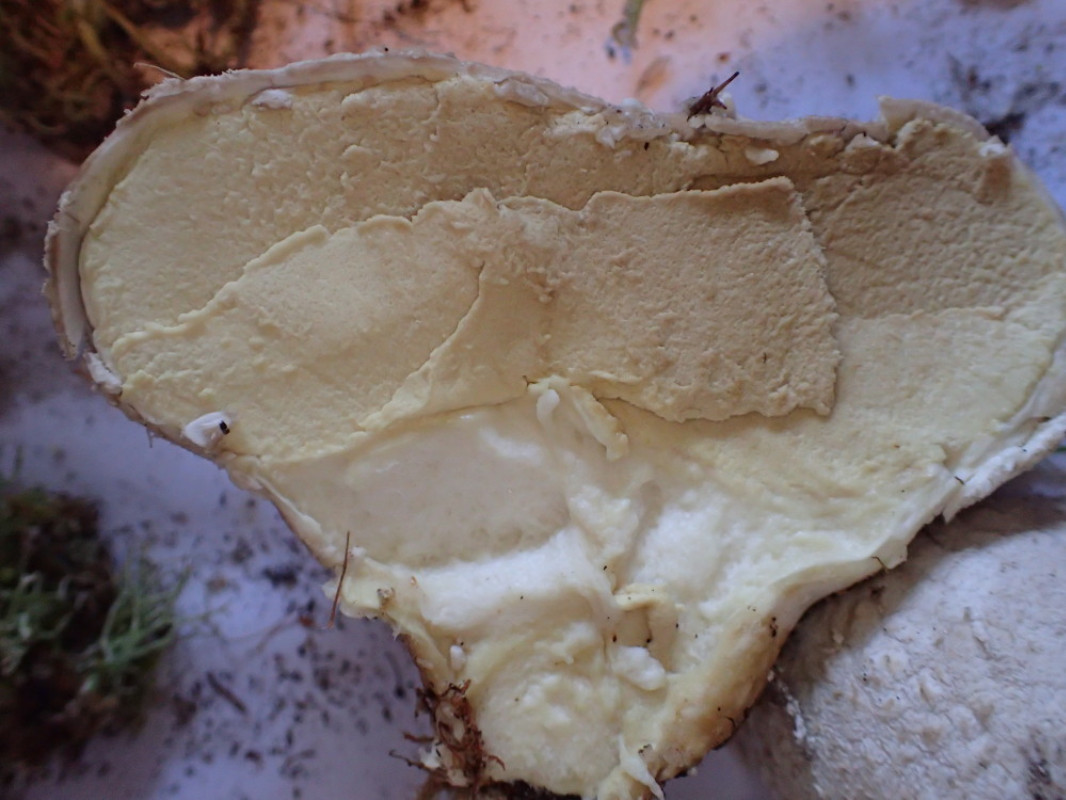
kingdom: Fungi
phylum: Basidiomycota
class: Agaricomycetes
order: Agaricales
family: Lycoperdaceae
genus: Bovistella
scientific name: Bovistella utriformis
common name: skællet støvbold
